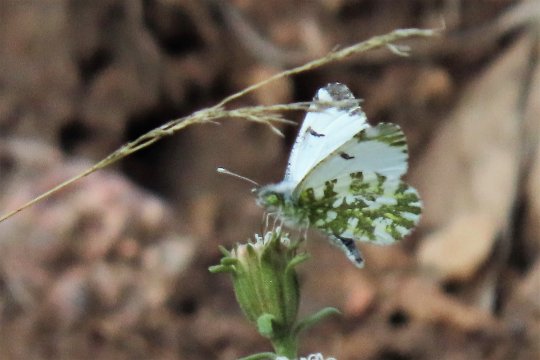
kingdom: Animalia
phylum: Arthropoda
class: Insecta
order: Lepidoptera
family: Pieridae
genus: Euchloe
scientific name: Euchloe ausonides
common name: Large Marble
